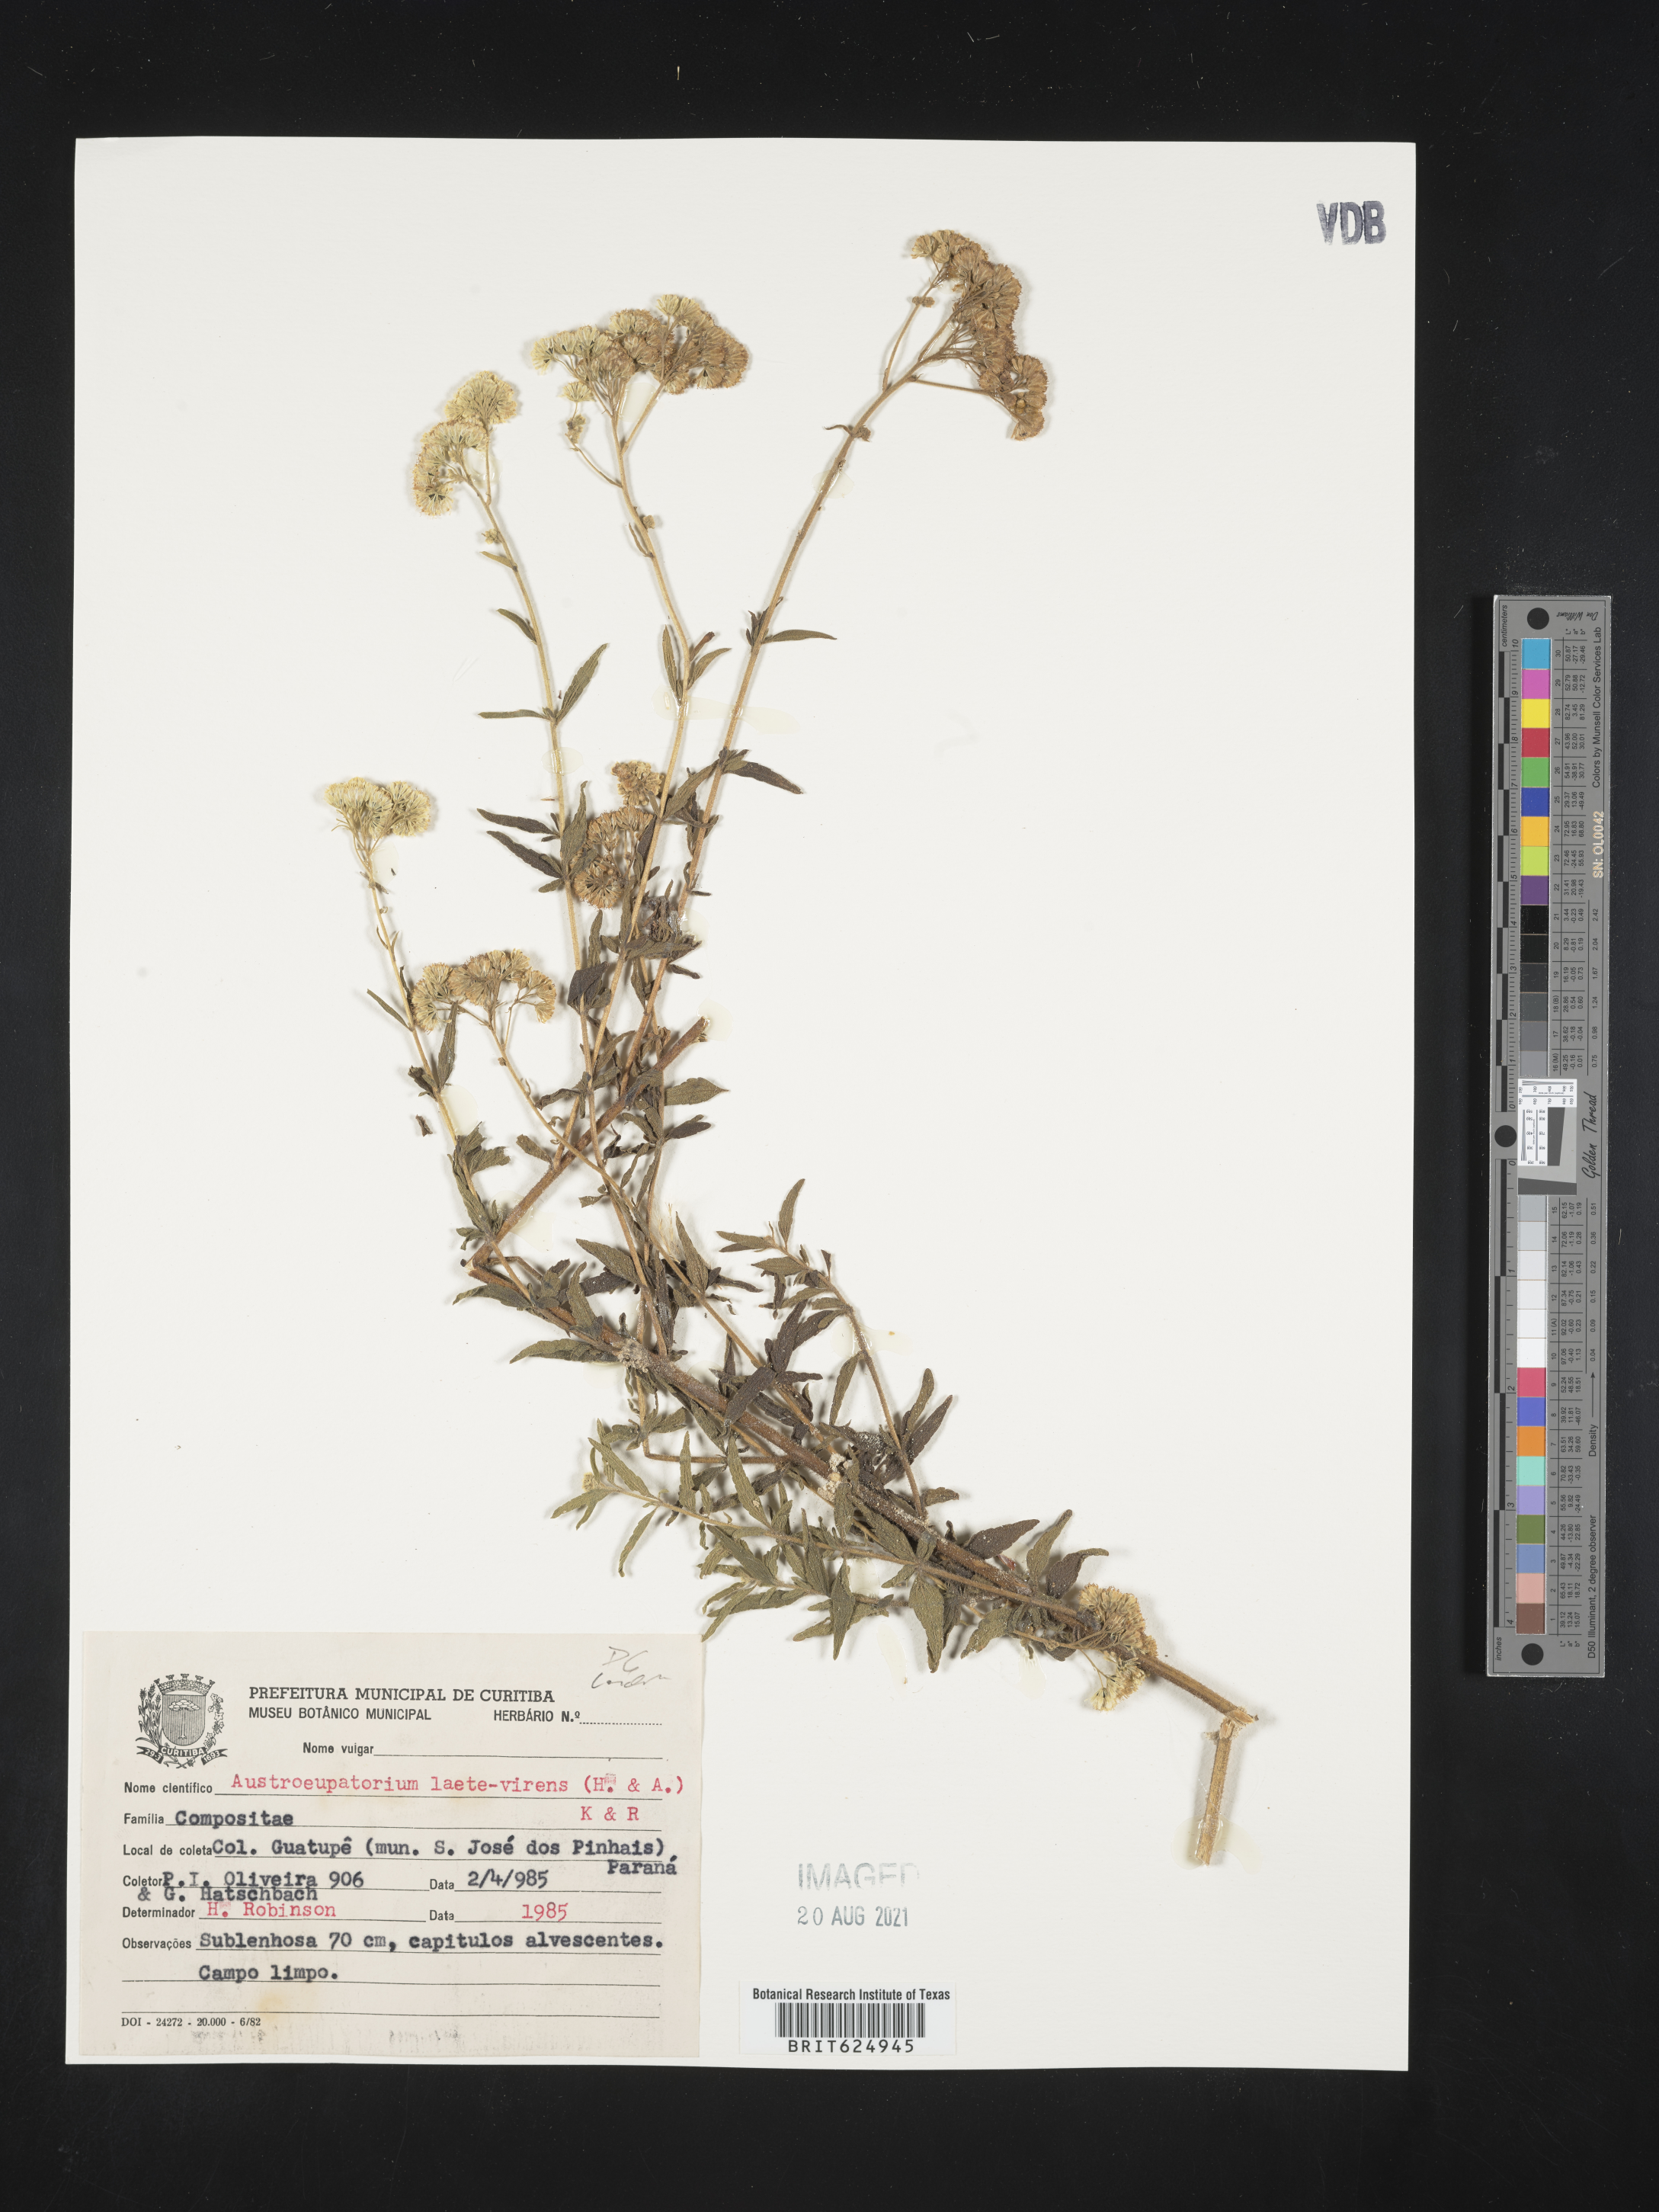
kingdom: Plantae
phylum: Tracheophyta
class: Magnoliopsida
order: Asterales
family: Asteraceae
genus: Austroeupatorium
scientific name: Austroeupatorium laetevirens
